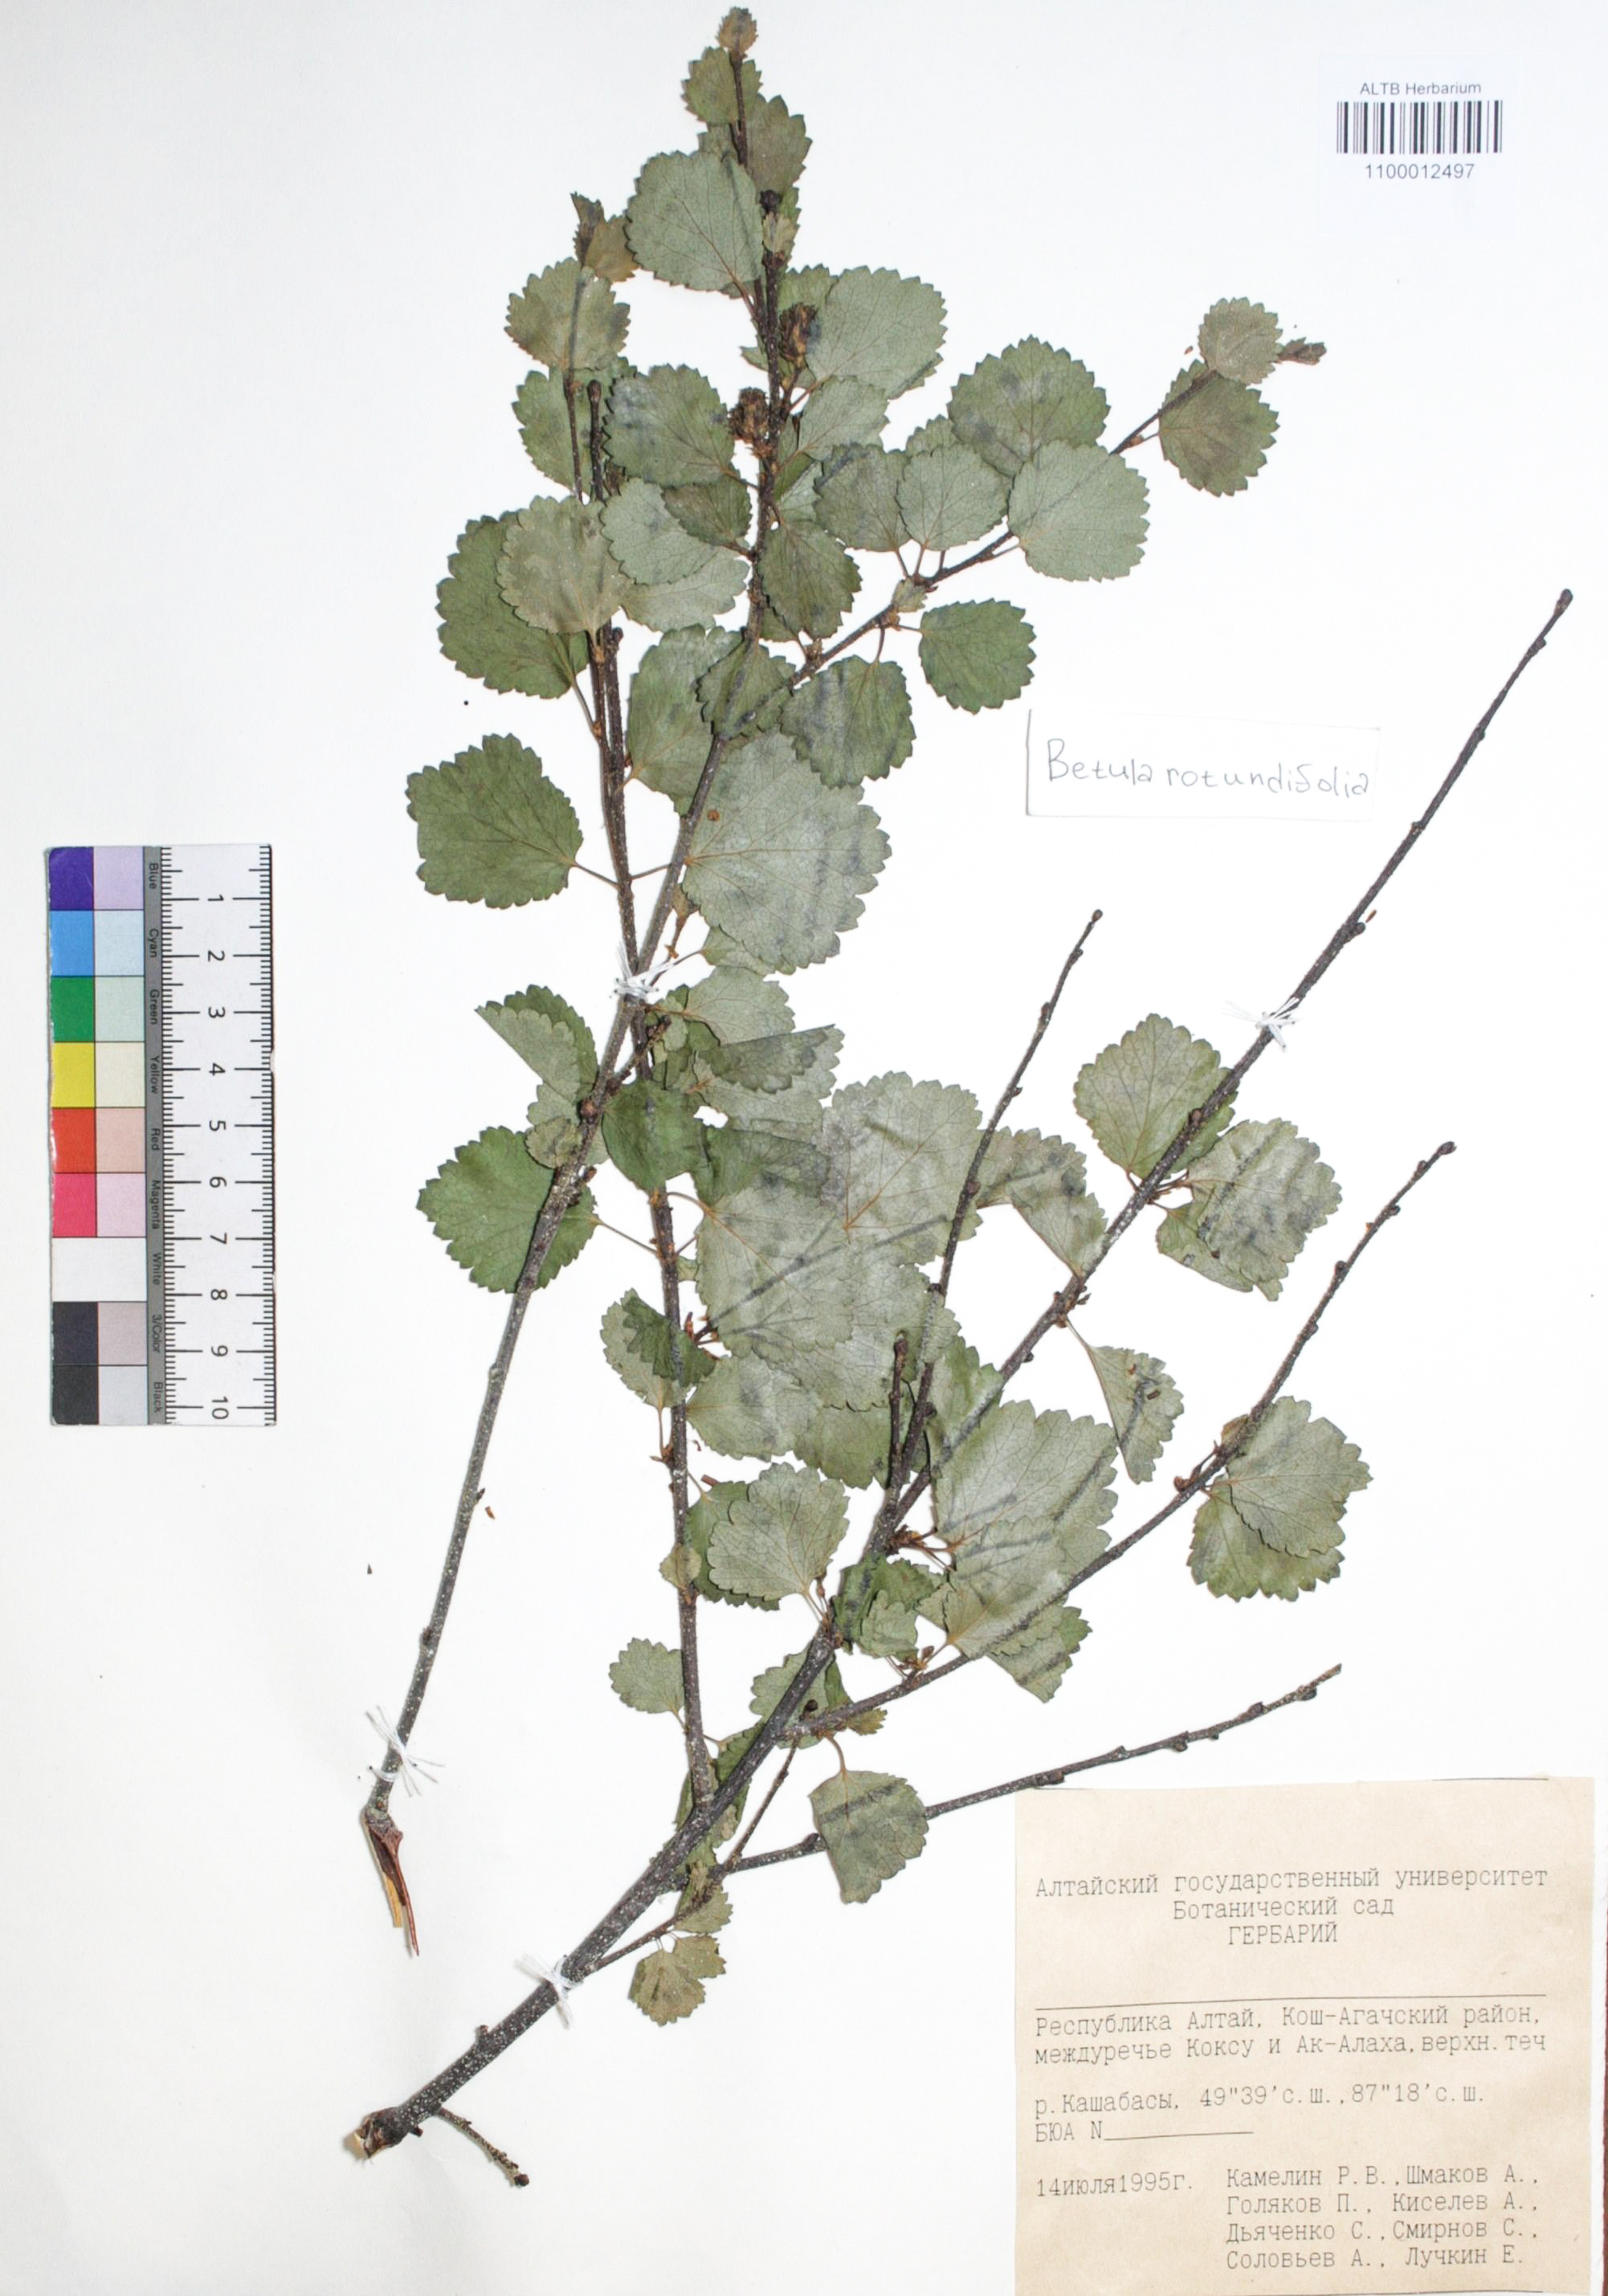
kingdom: Plantae
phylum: Tracheophyta
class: Magnoliopsida
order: Fagales
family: Betulaceae
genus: Betula
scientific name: Betula glandulosa
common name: Dwarf birch
